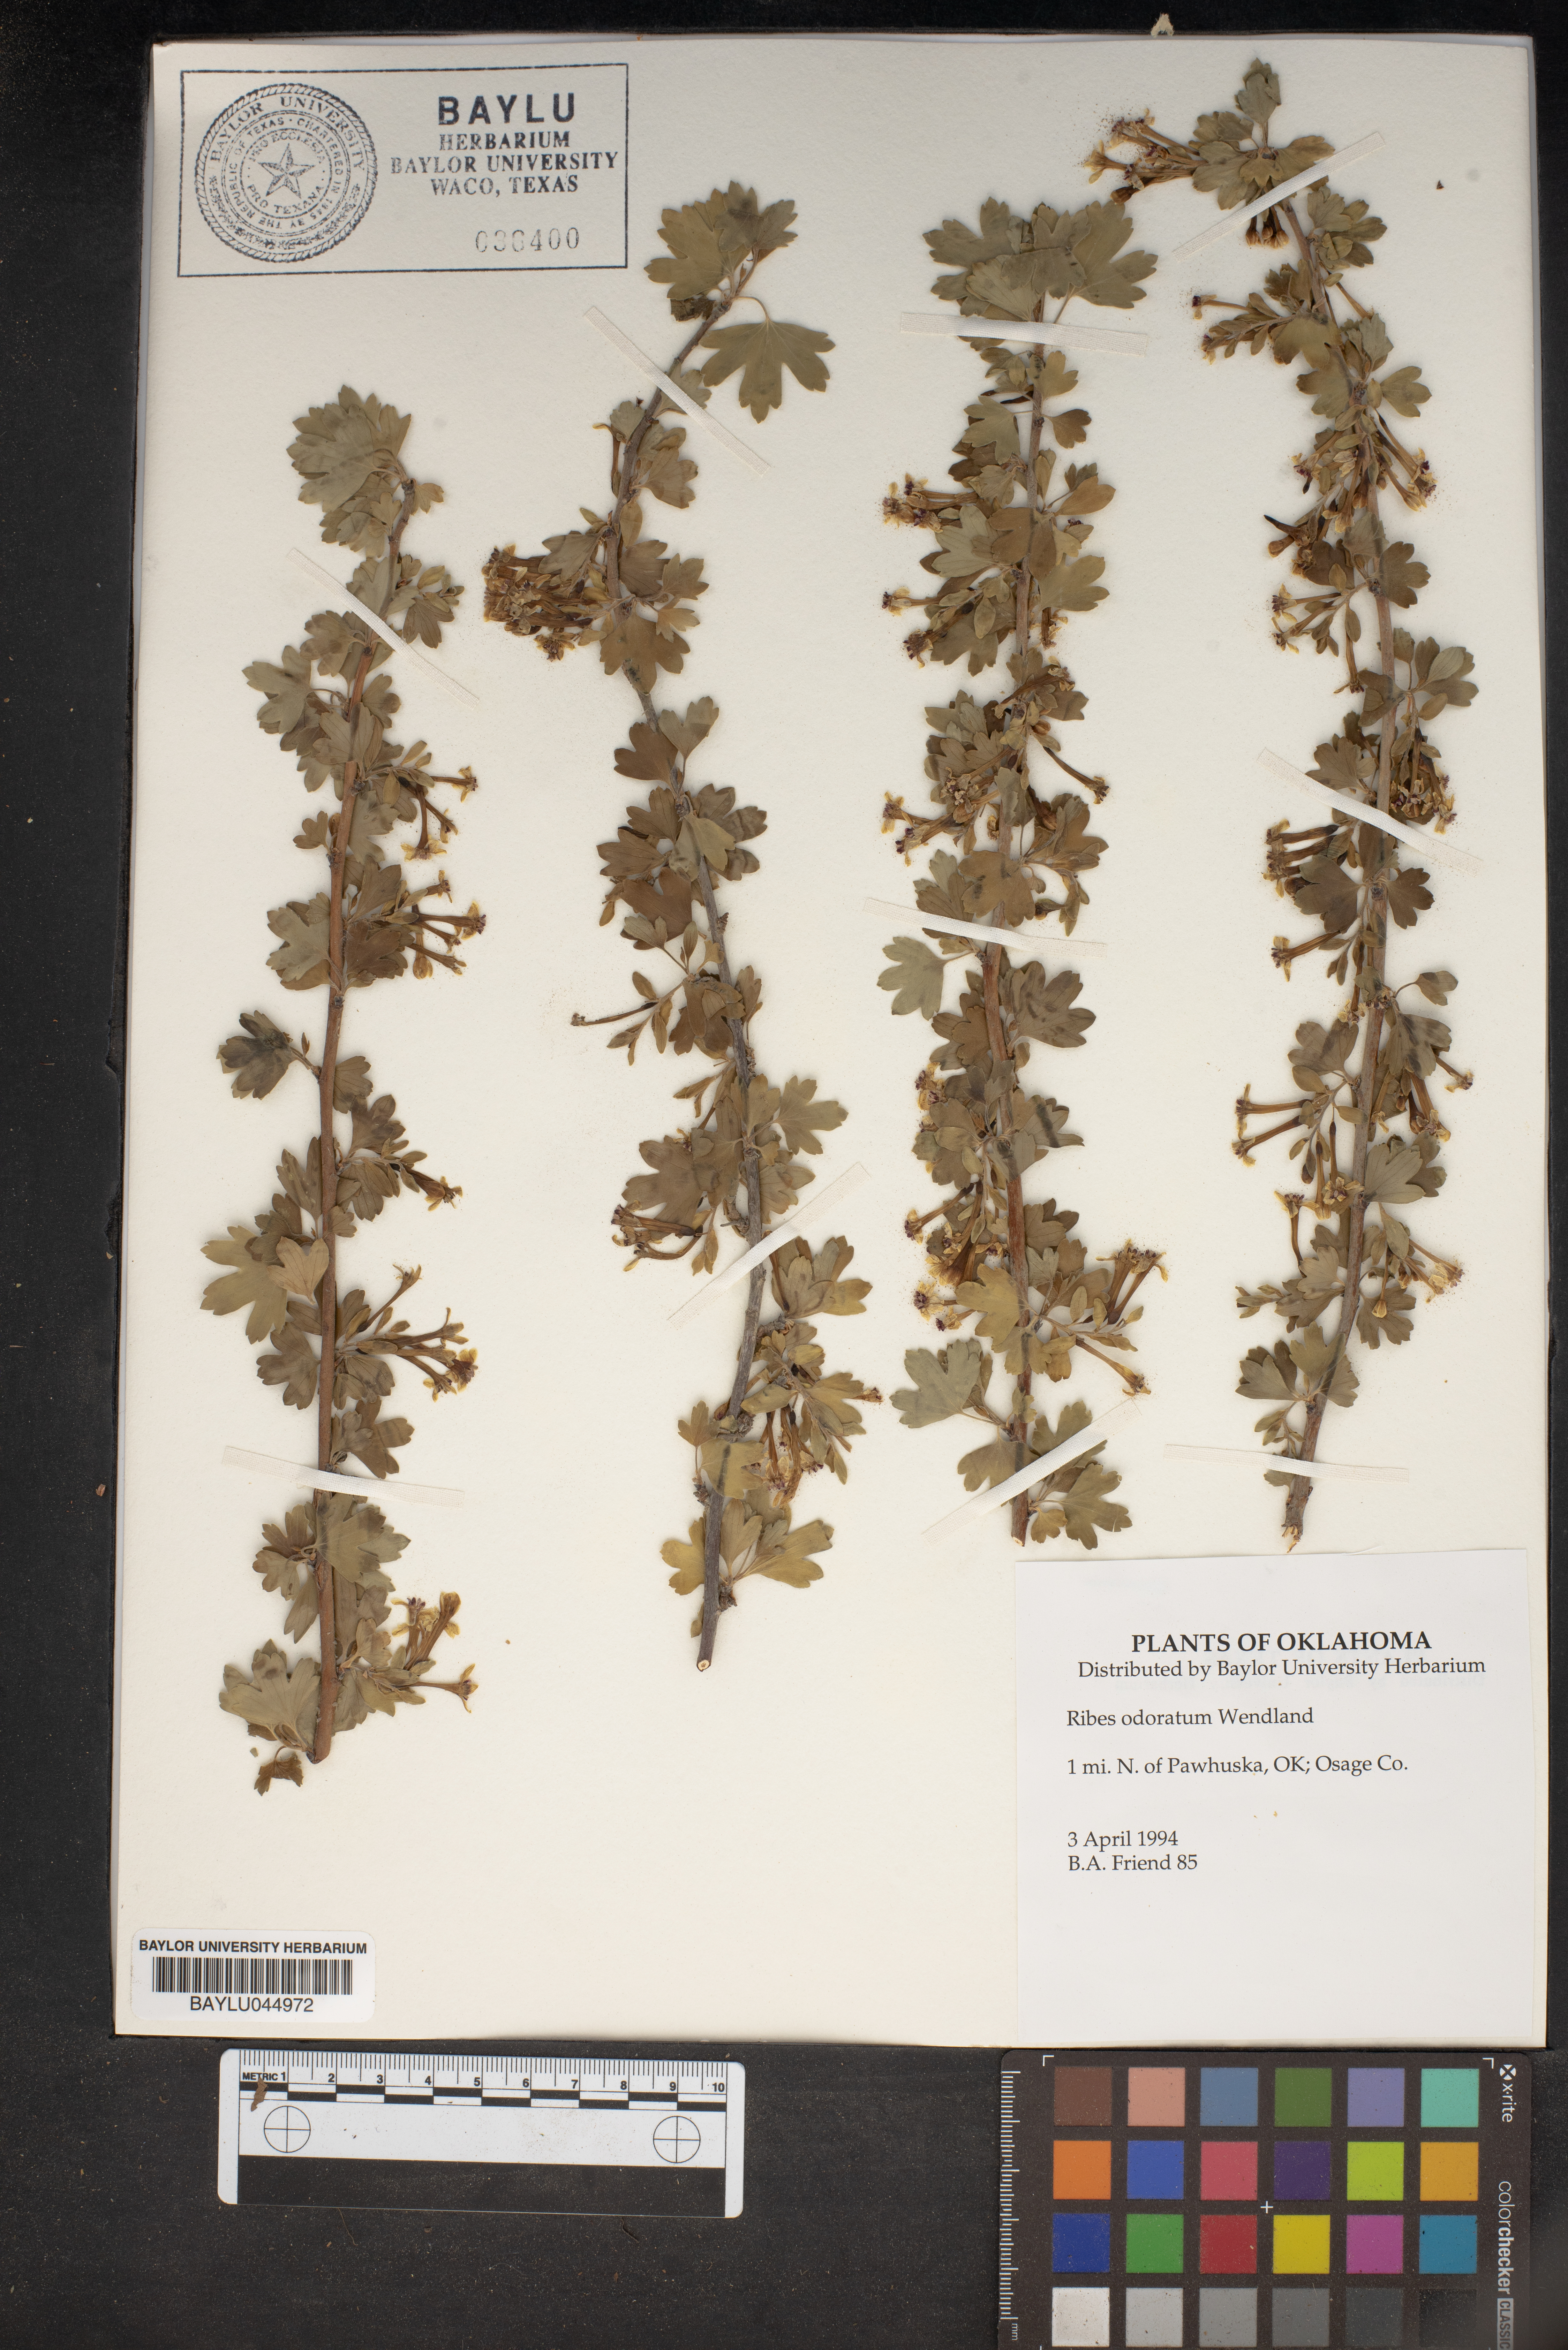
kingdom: Plantae
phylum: Tracheophyta
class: Magnoliopsida
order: Saxifragales
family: Grossulariaceae
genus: Ribes
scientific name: Ribes aureum
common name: Golden currant
